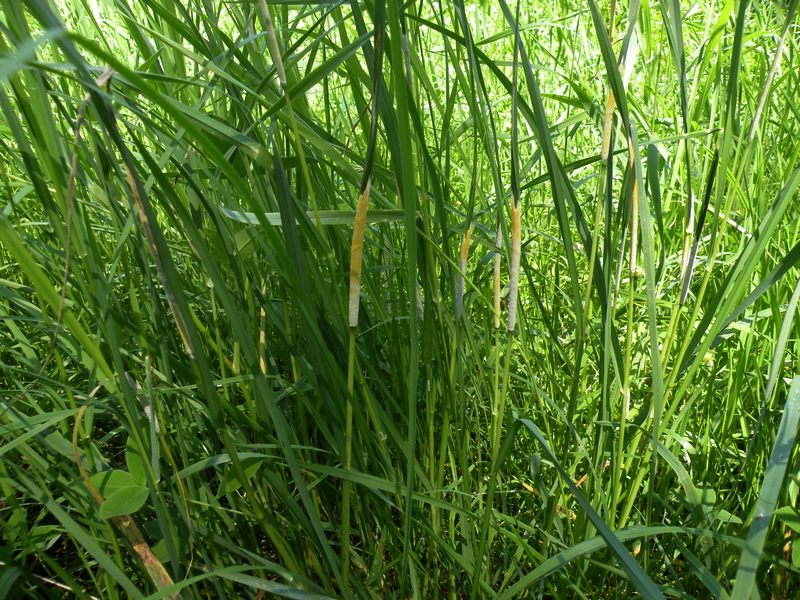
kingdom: Fungi
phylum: Ascomycota
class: Sordariomycetes
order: Hypocreales
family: Clavicipitaceae
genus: Epichloe
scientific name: Epichloe typhina
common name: almindelig kernerør
